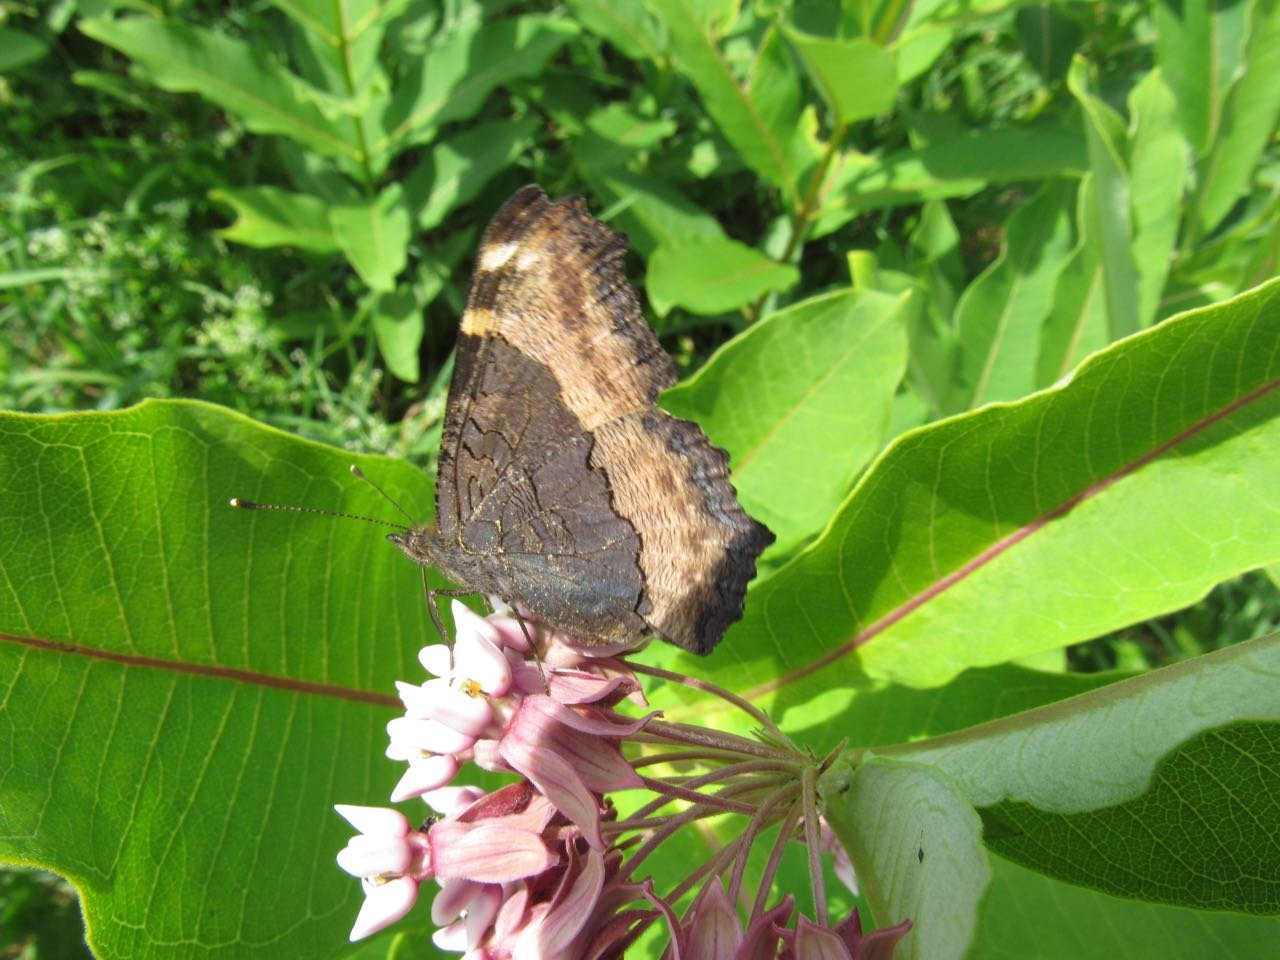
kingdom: Animalia
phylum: Arthropoda
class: Insecta
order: Lepidoptera
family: Nymphalidae
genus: Aglais
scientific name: Aglais milberti
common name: Milbert's Tortoiseshell
